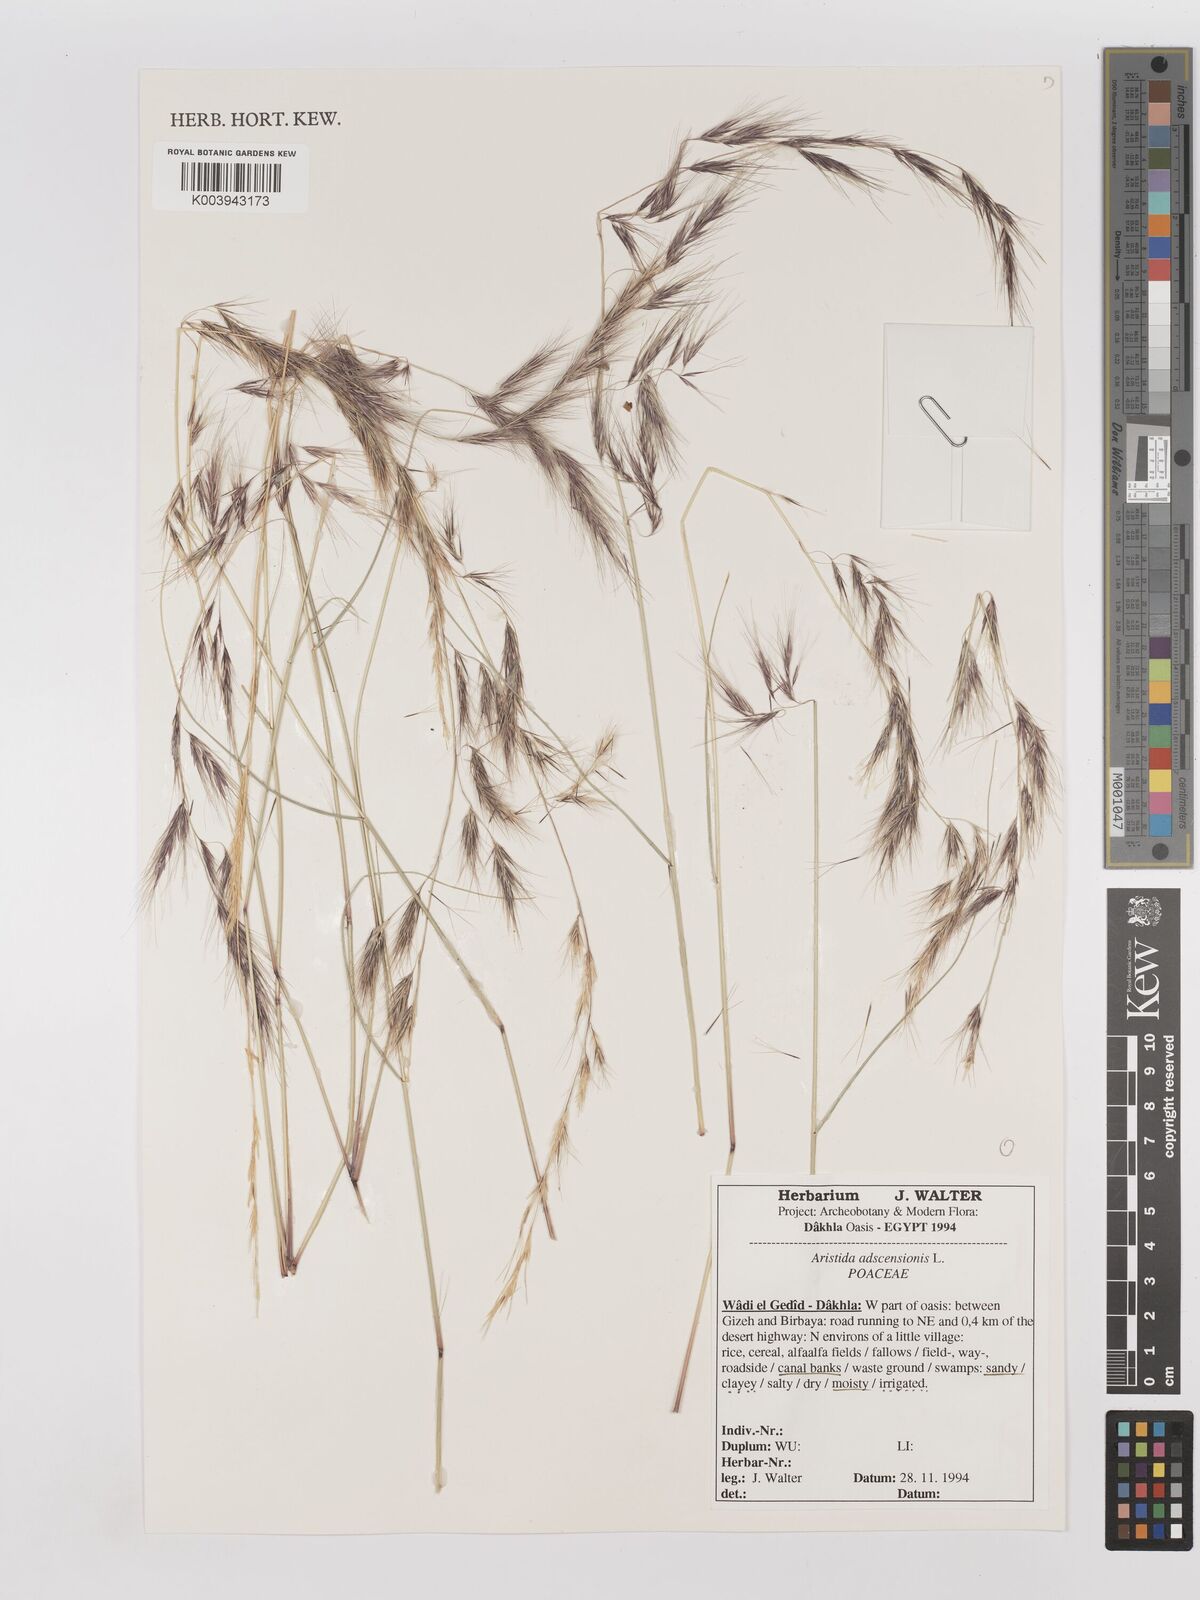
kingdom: Plantae
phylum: Tracheophyta
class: Liliopsida
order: Poales
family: Poaceae
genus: Aristida
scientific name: Aristida adscensionis
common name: Sixweeks threeawn
